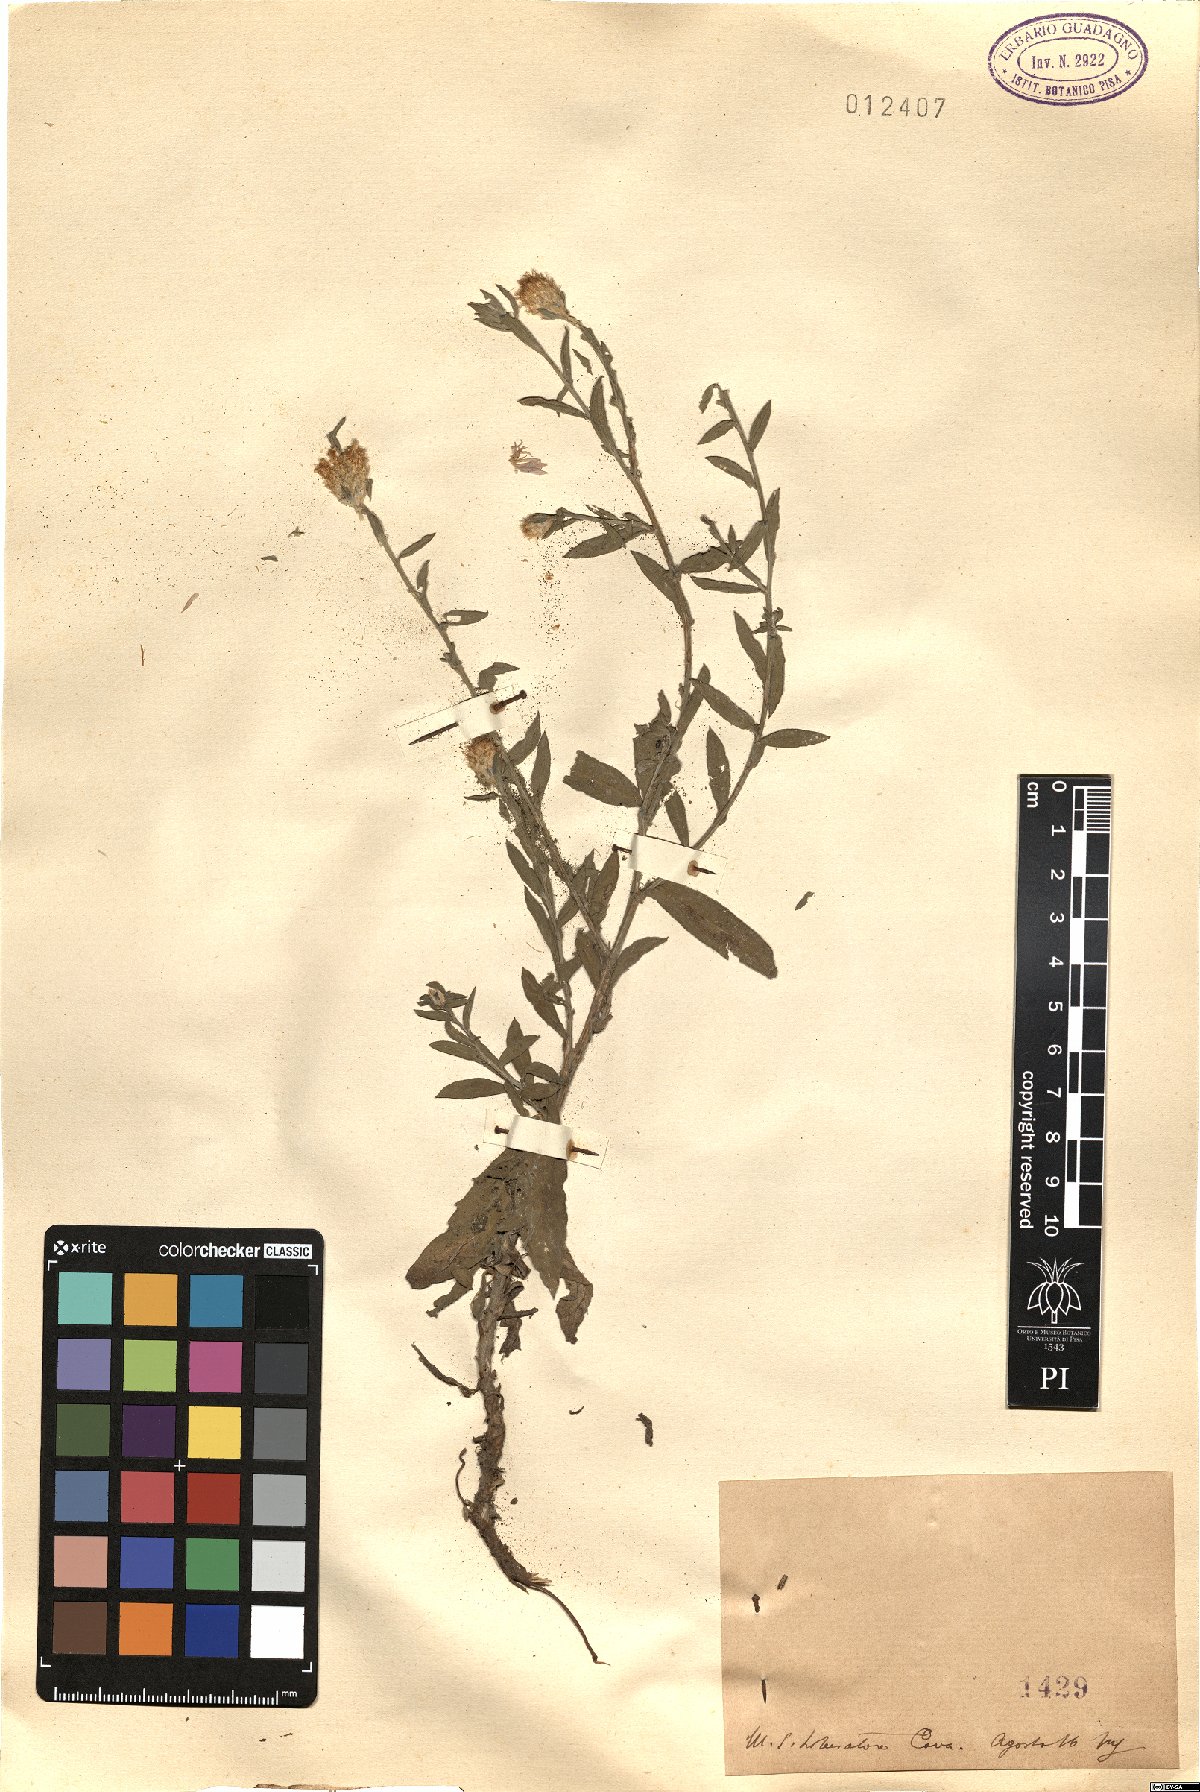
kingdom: Plantae
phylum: Tracheophyta
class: Magnoliopsida
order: Asterales
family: Asteraceae
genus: Centaurea
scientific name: Centaurea
